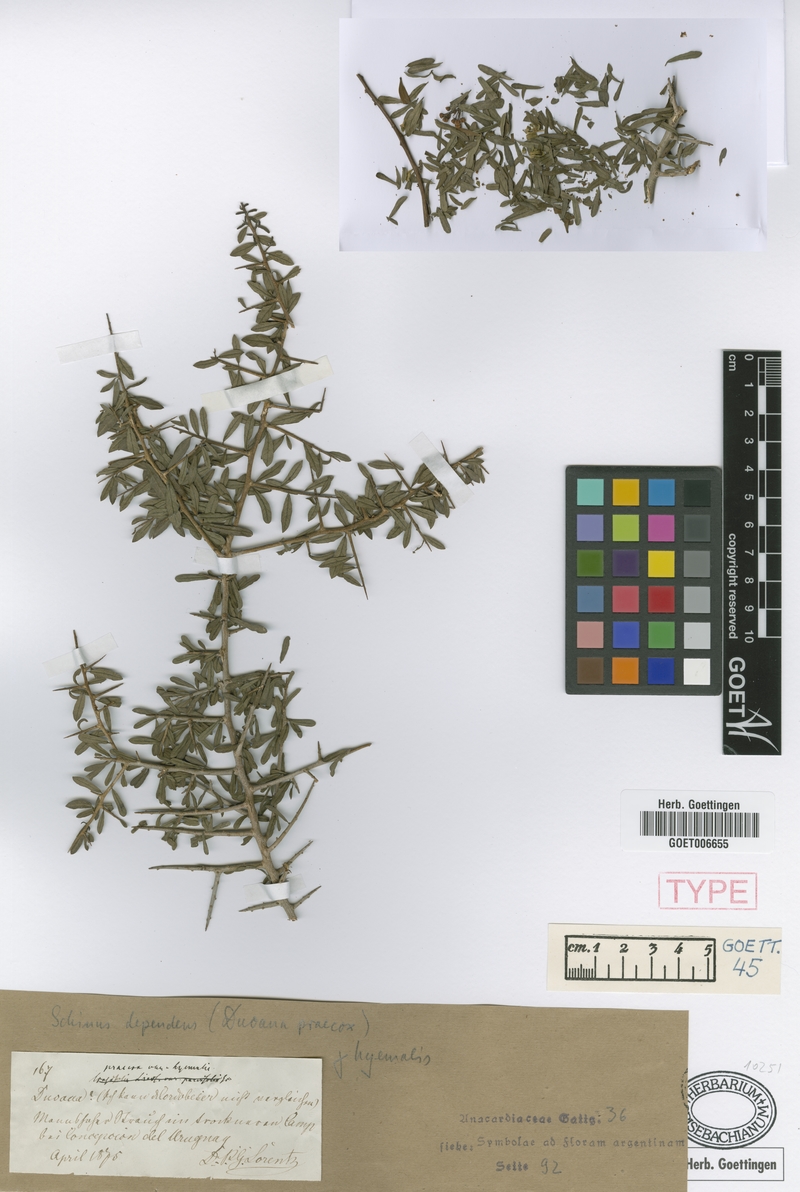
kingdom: Plantae
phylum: Tracheophyta
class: Magnoliopsida
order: Sapindales
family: Anacardiaceae
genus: Schinus
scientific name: Schinus polygama
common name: Hardee peppertree
